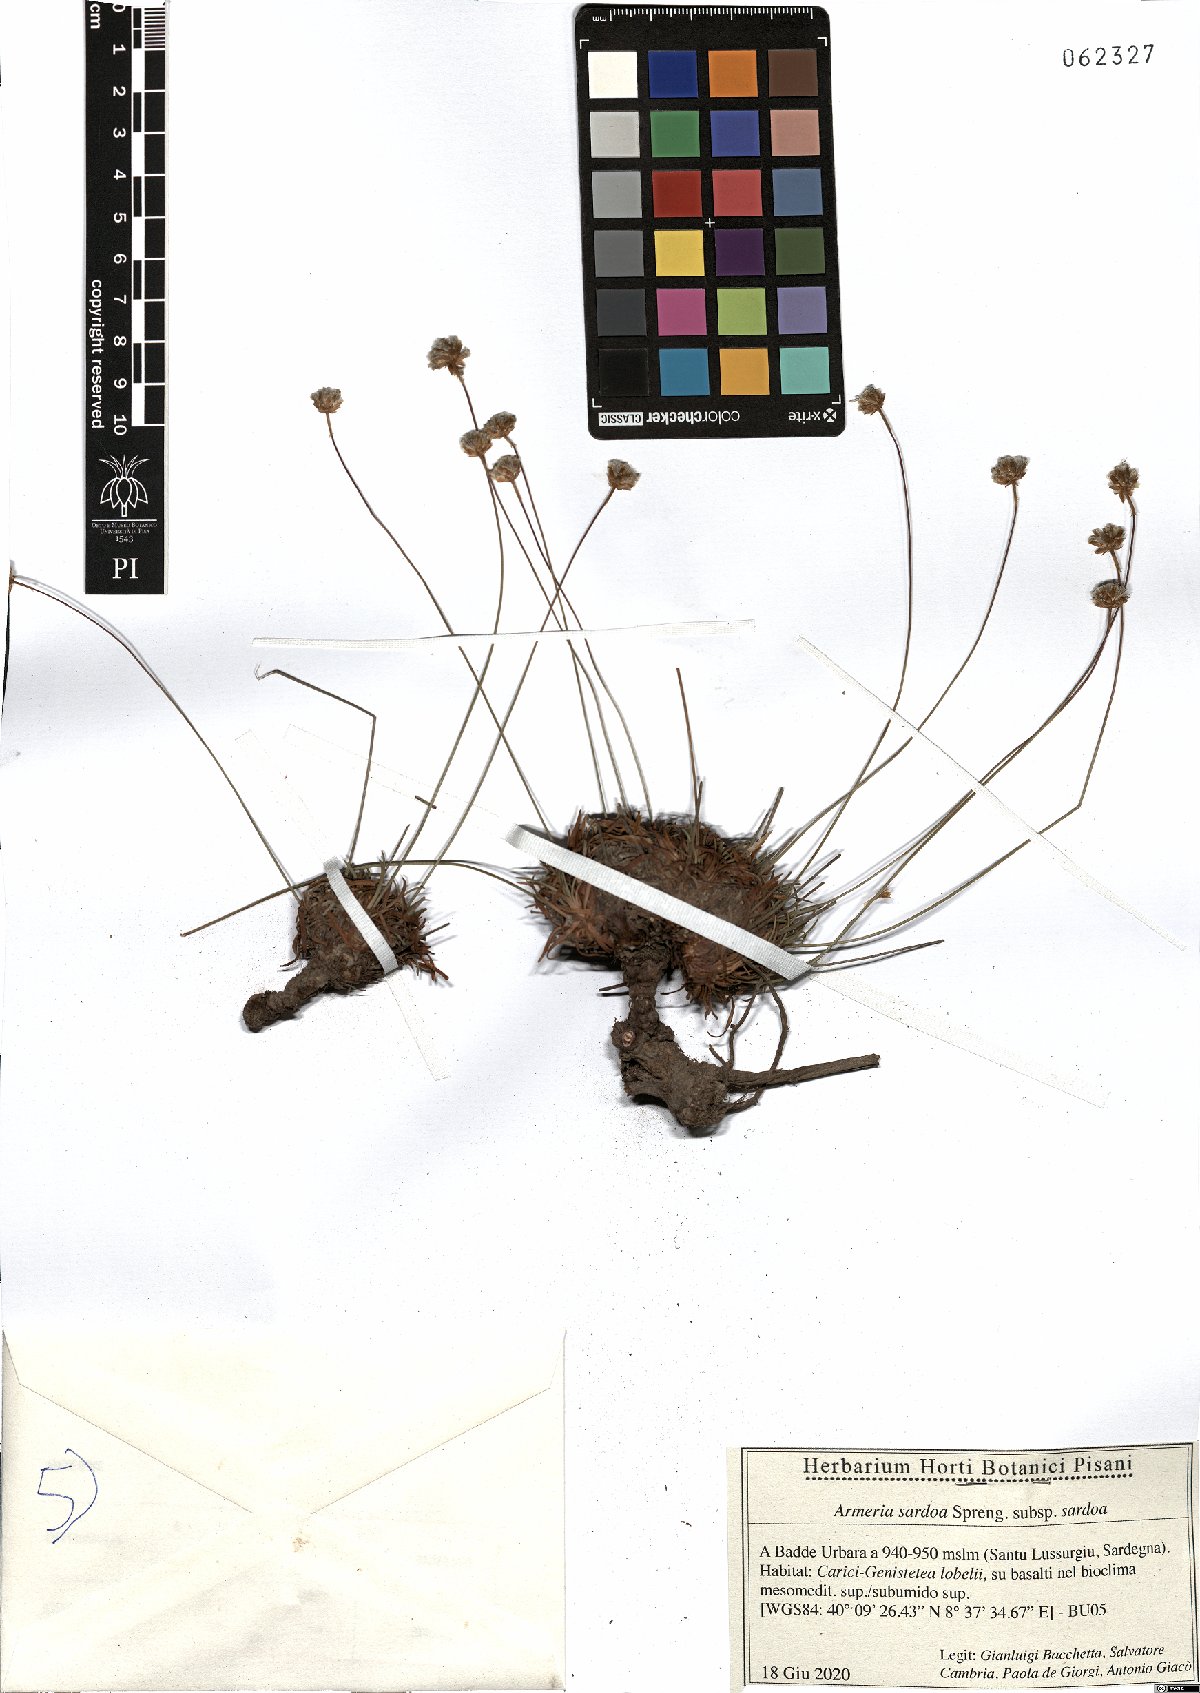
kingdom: Plantae
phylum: Tracheophyta
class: Magnoliopsida
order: Caryophyllales
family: Plumbaginaceae
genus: Armeria
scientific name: Armeria sardoa
